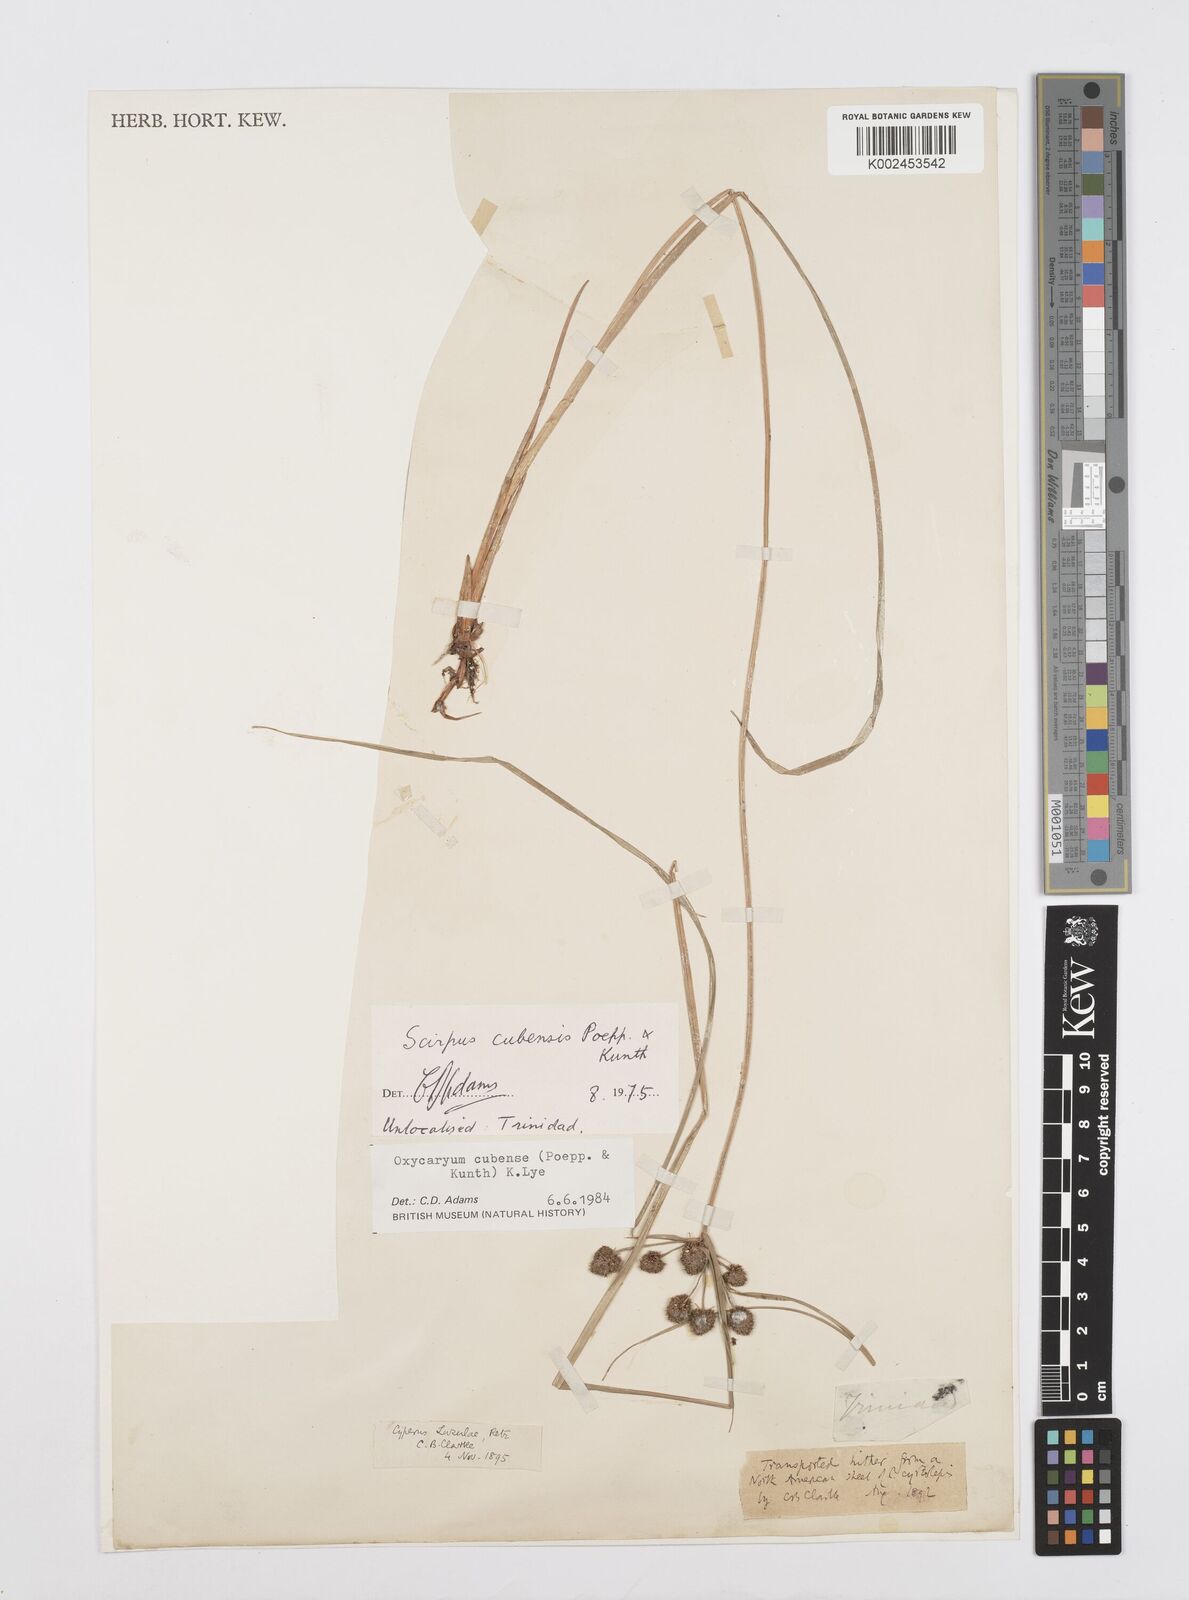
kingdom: Plantae
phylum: Tracheophyta
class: Liliopsida
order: Poales
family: Cyperaceae
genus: Cyperus
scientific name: Cyperus elegans
